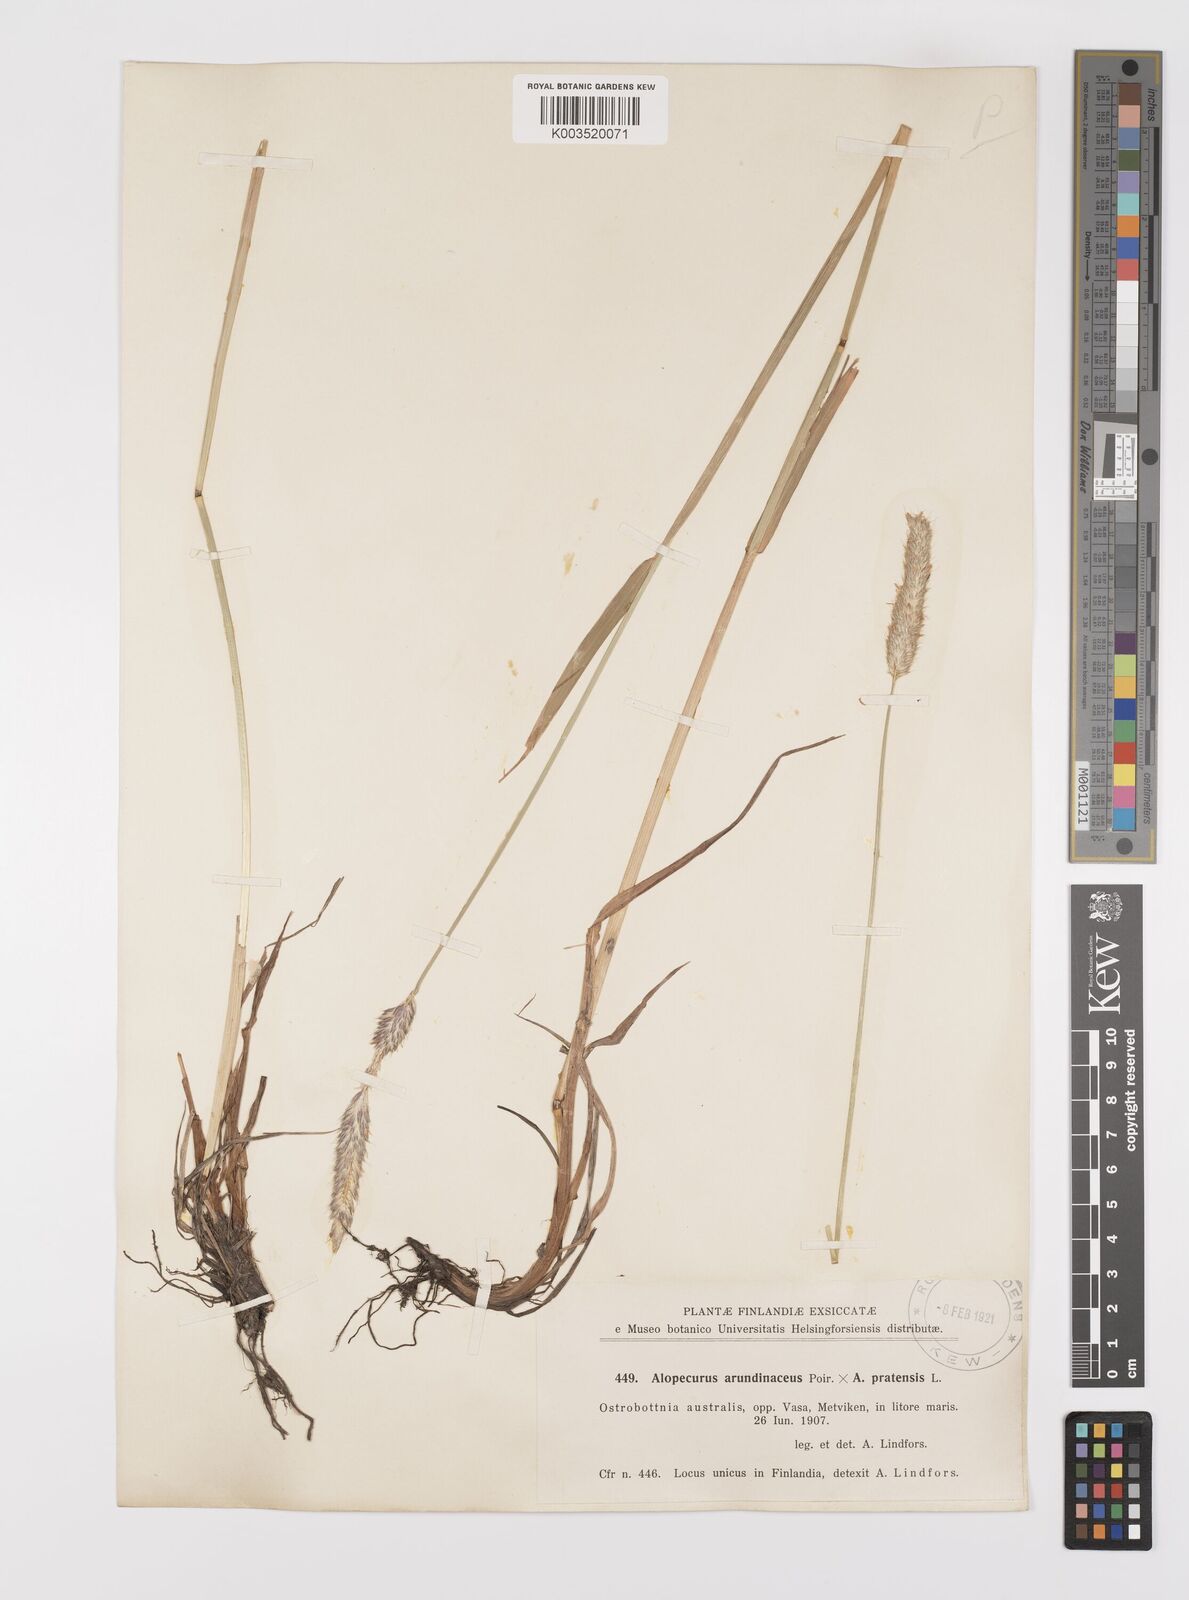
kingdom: Plantae
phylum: Tracheophyta
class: Liliopsida
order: Poales
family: Poaceae
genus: Alopecurus
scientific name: Alopecurus arundinaceus
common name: Creeping meadow foxtail
